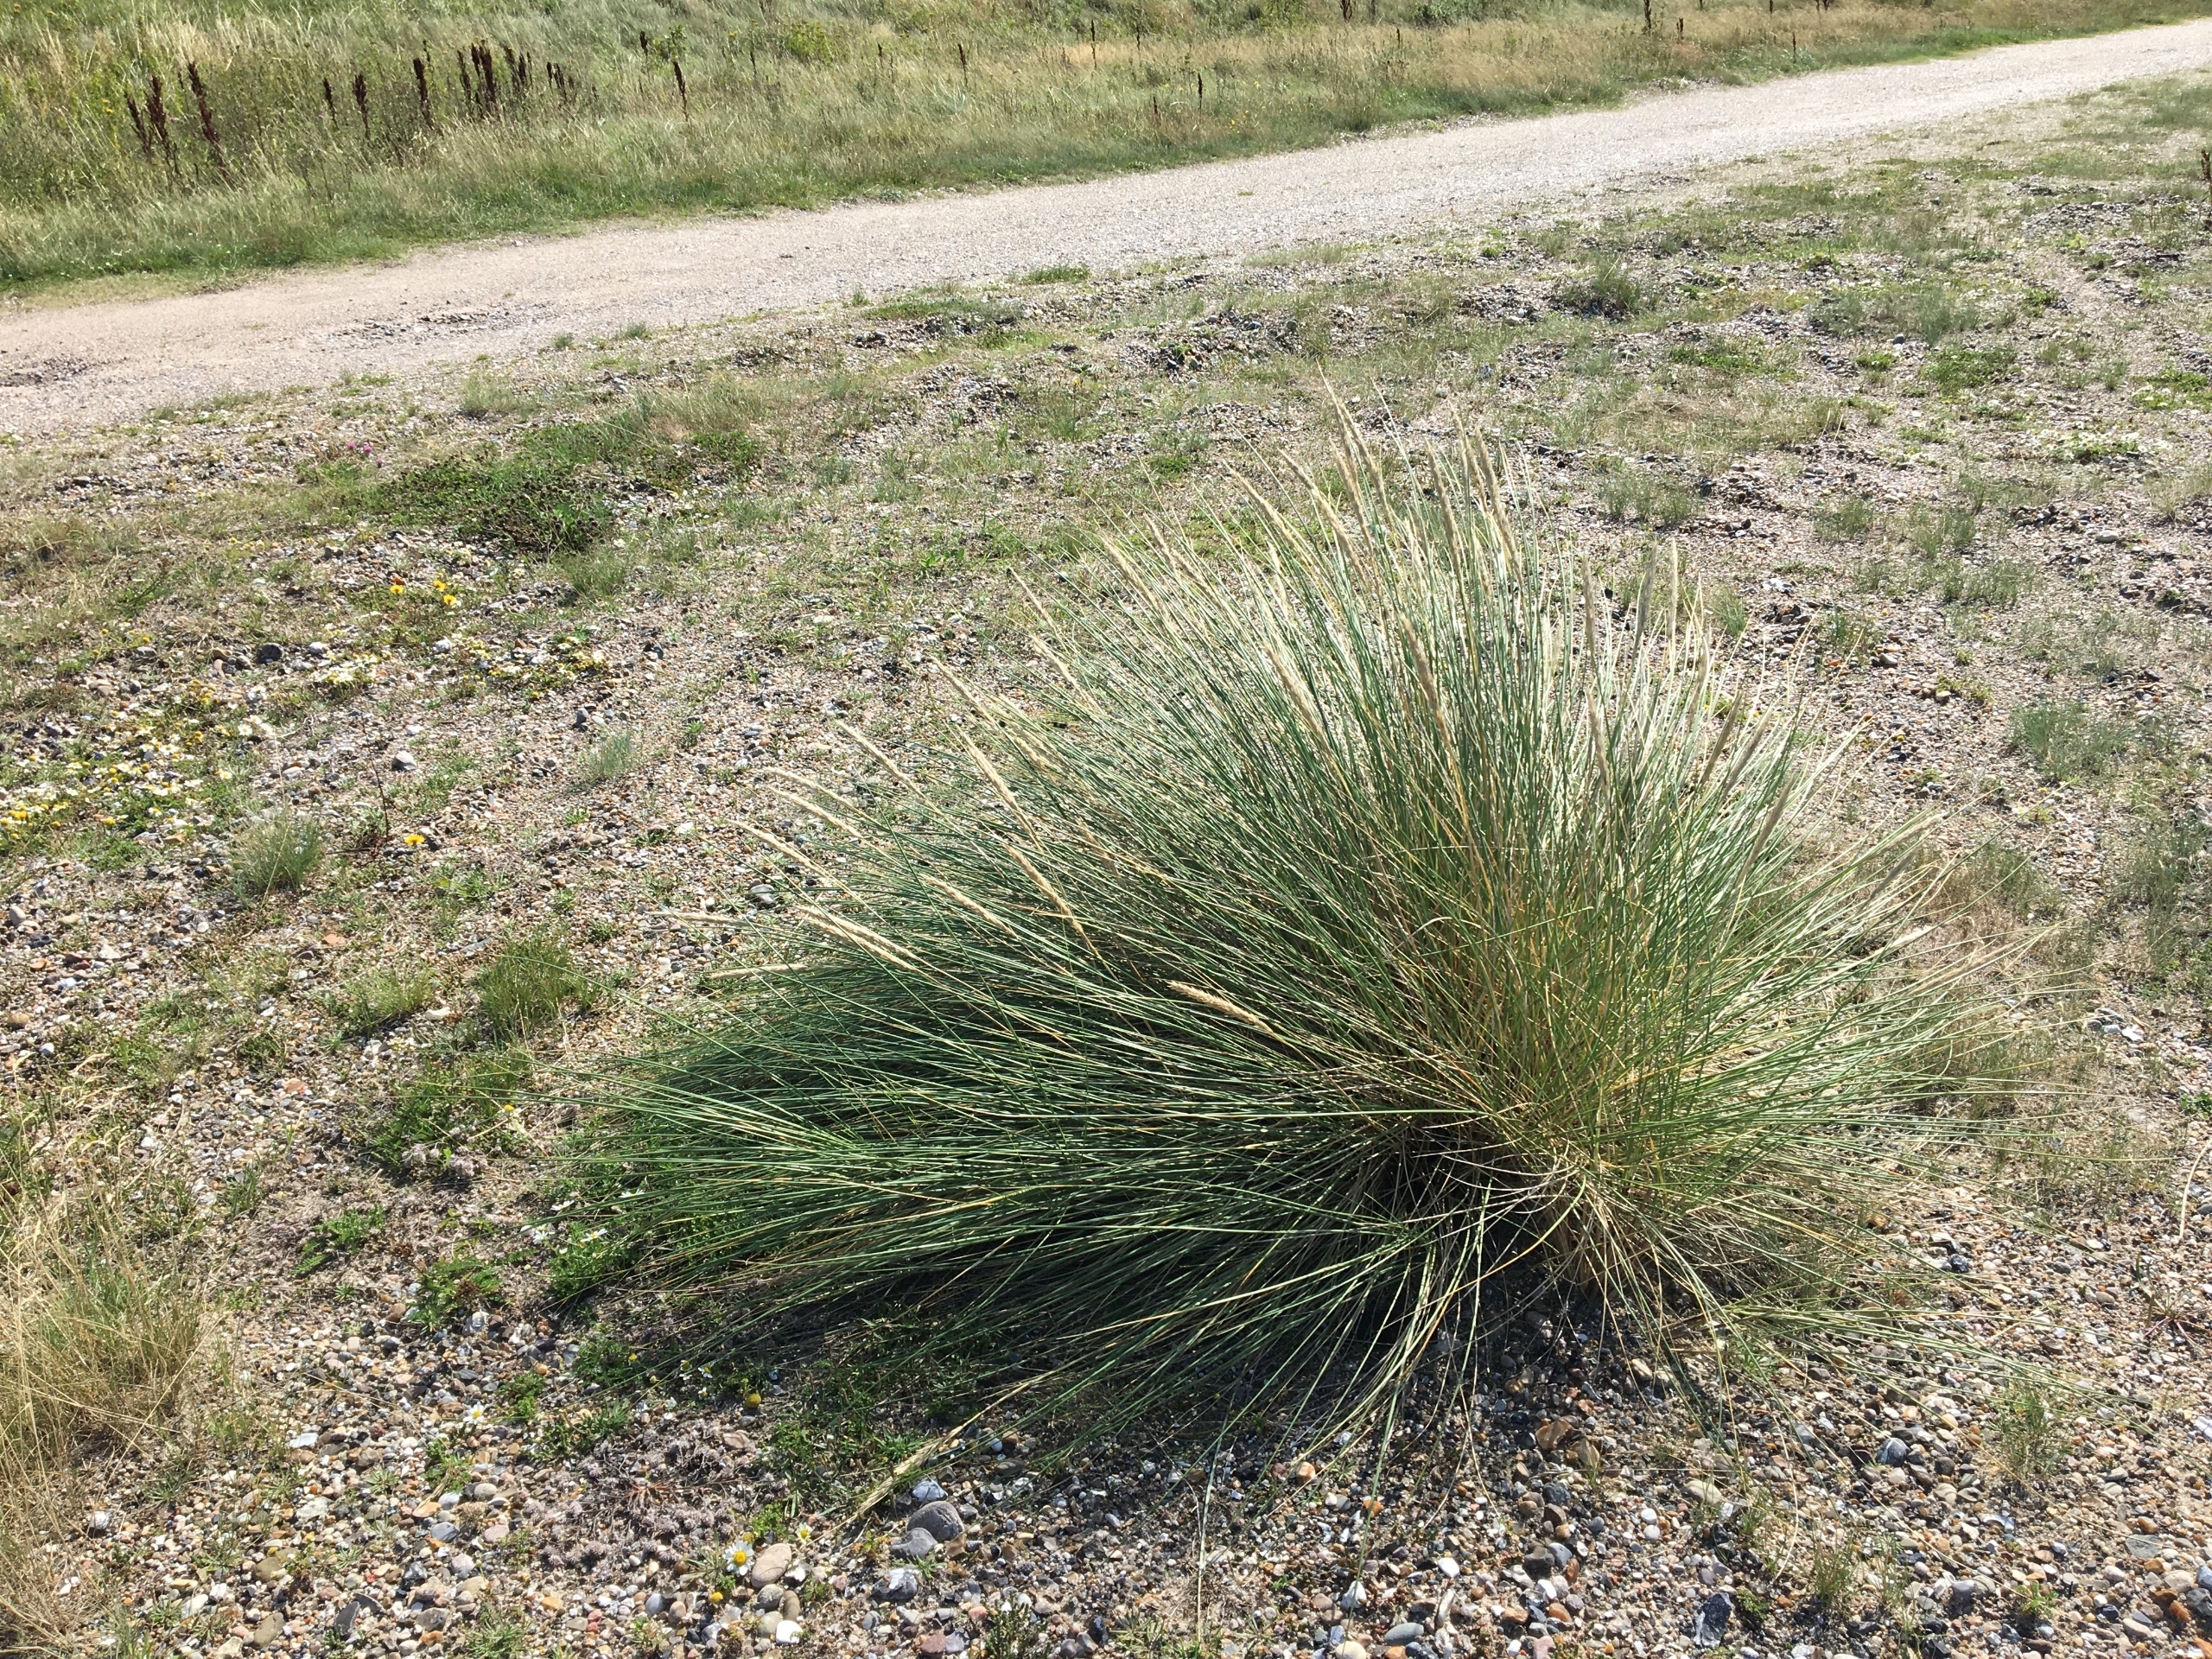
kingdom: Plantae
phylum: Tracheophyta
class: Liliopsida
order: Poales
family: Poaceae
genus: Calamagrostis
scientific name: Calamagrostis arenaria
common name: Sand-hjælme
